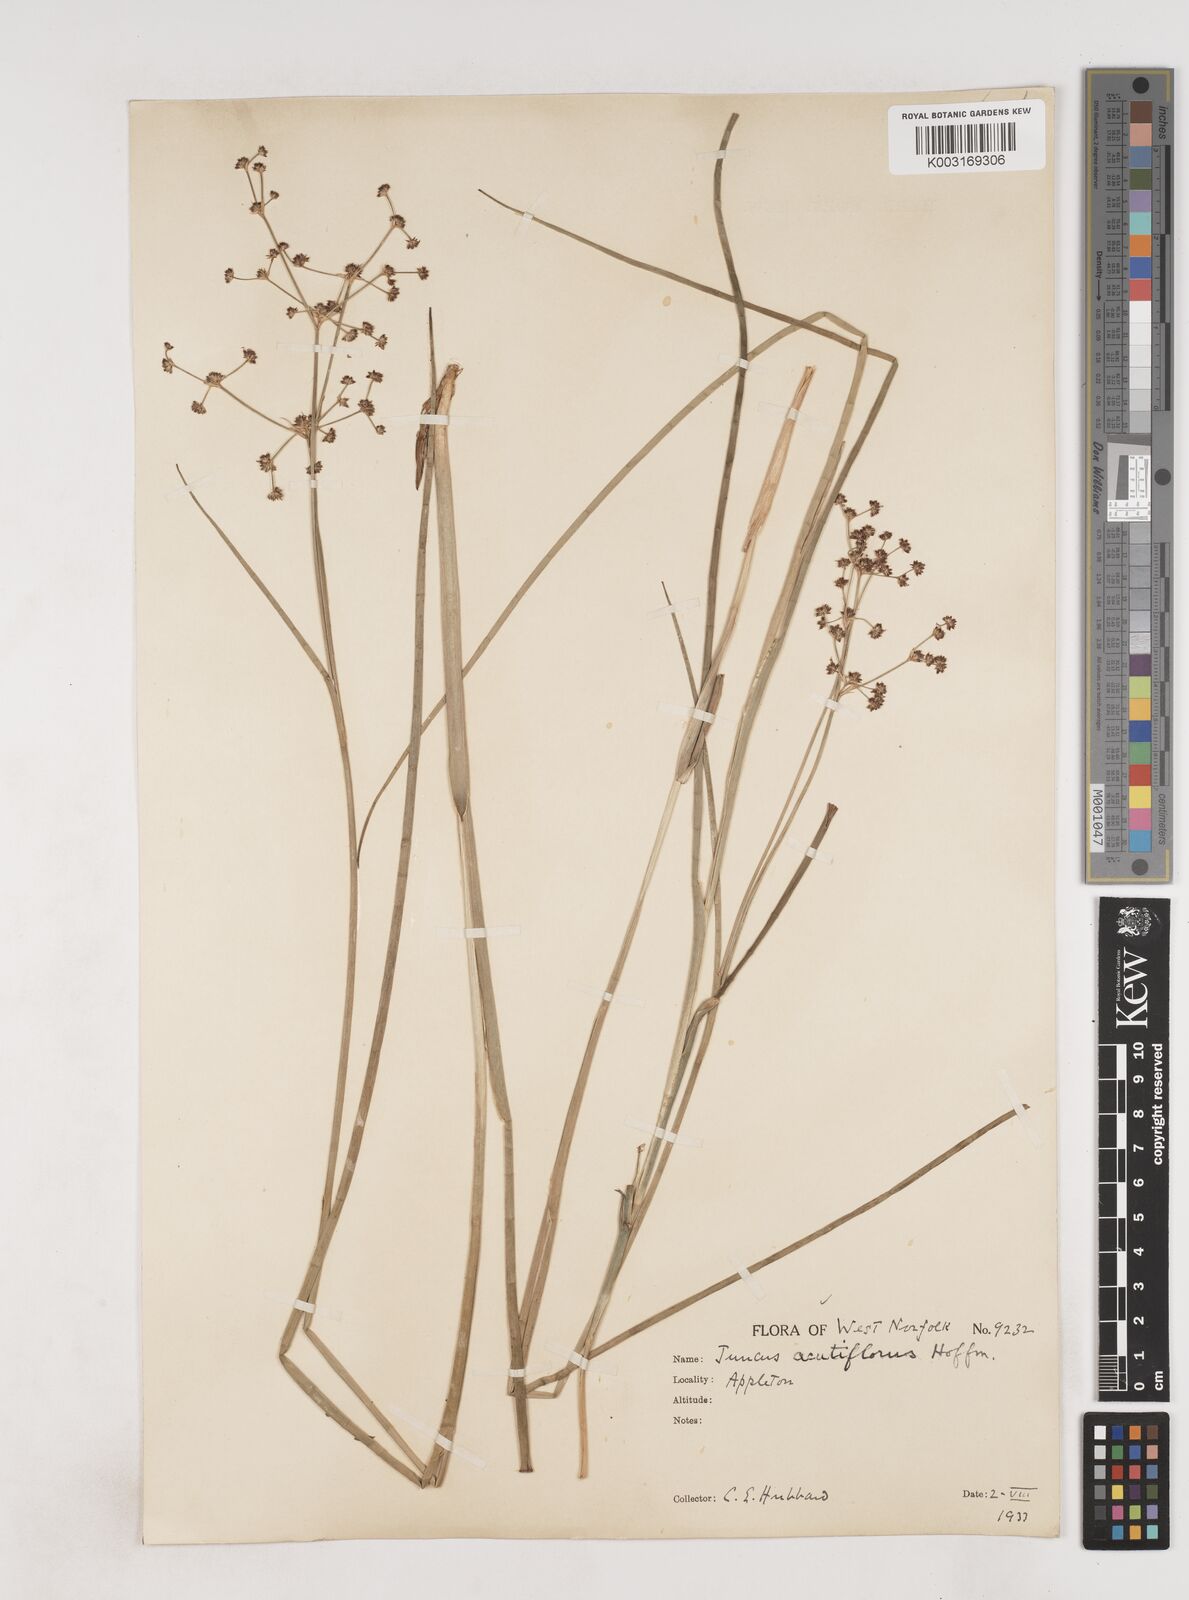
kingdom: Plantae
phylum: Tracheophyta
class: Liliopsida
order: Poales
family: Juncaceae
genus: Juncus
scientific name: Juncus acutiflorus
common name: Sharp-flowered rush
